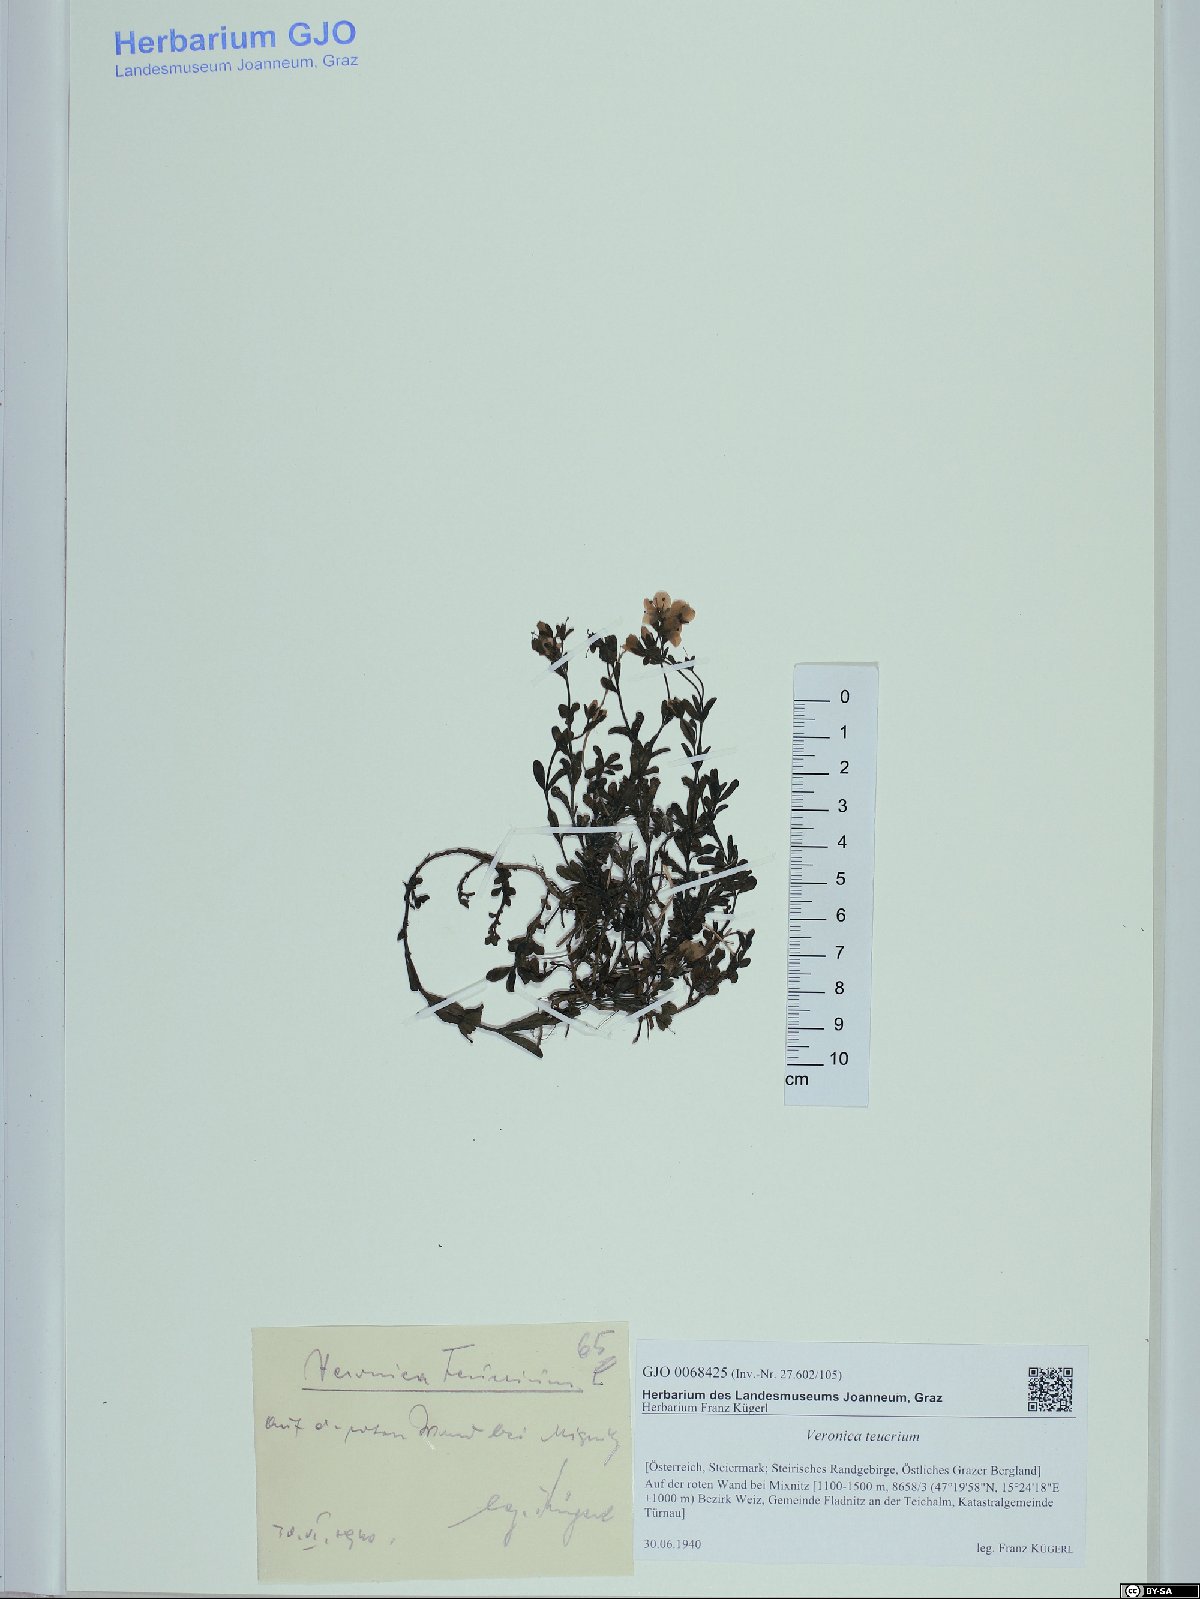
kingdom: Plantae
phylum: Tracheophyta
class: Magnoliopsida
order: Lamiales
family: Plantaginaceae
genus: Veronica
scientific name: Veronica teucrium
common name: Large speedwell
